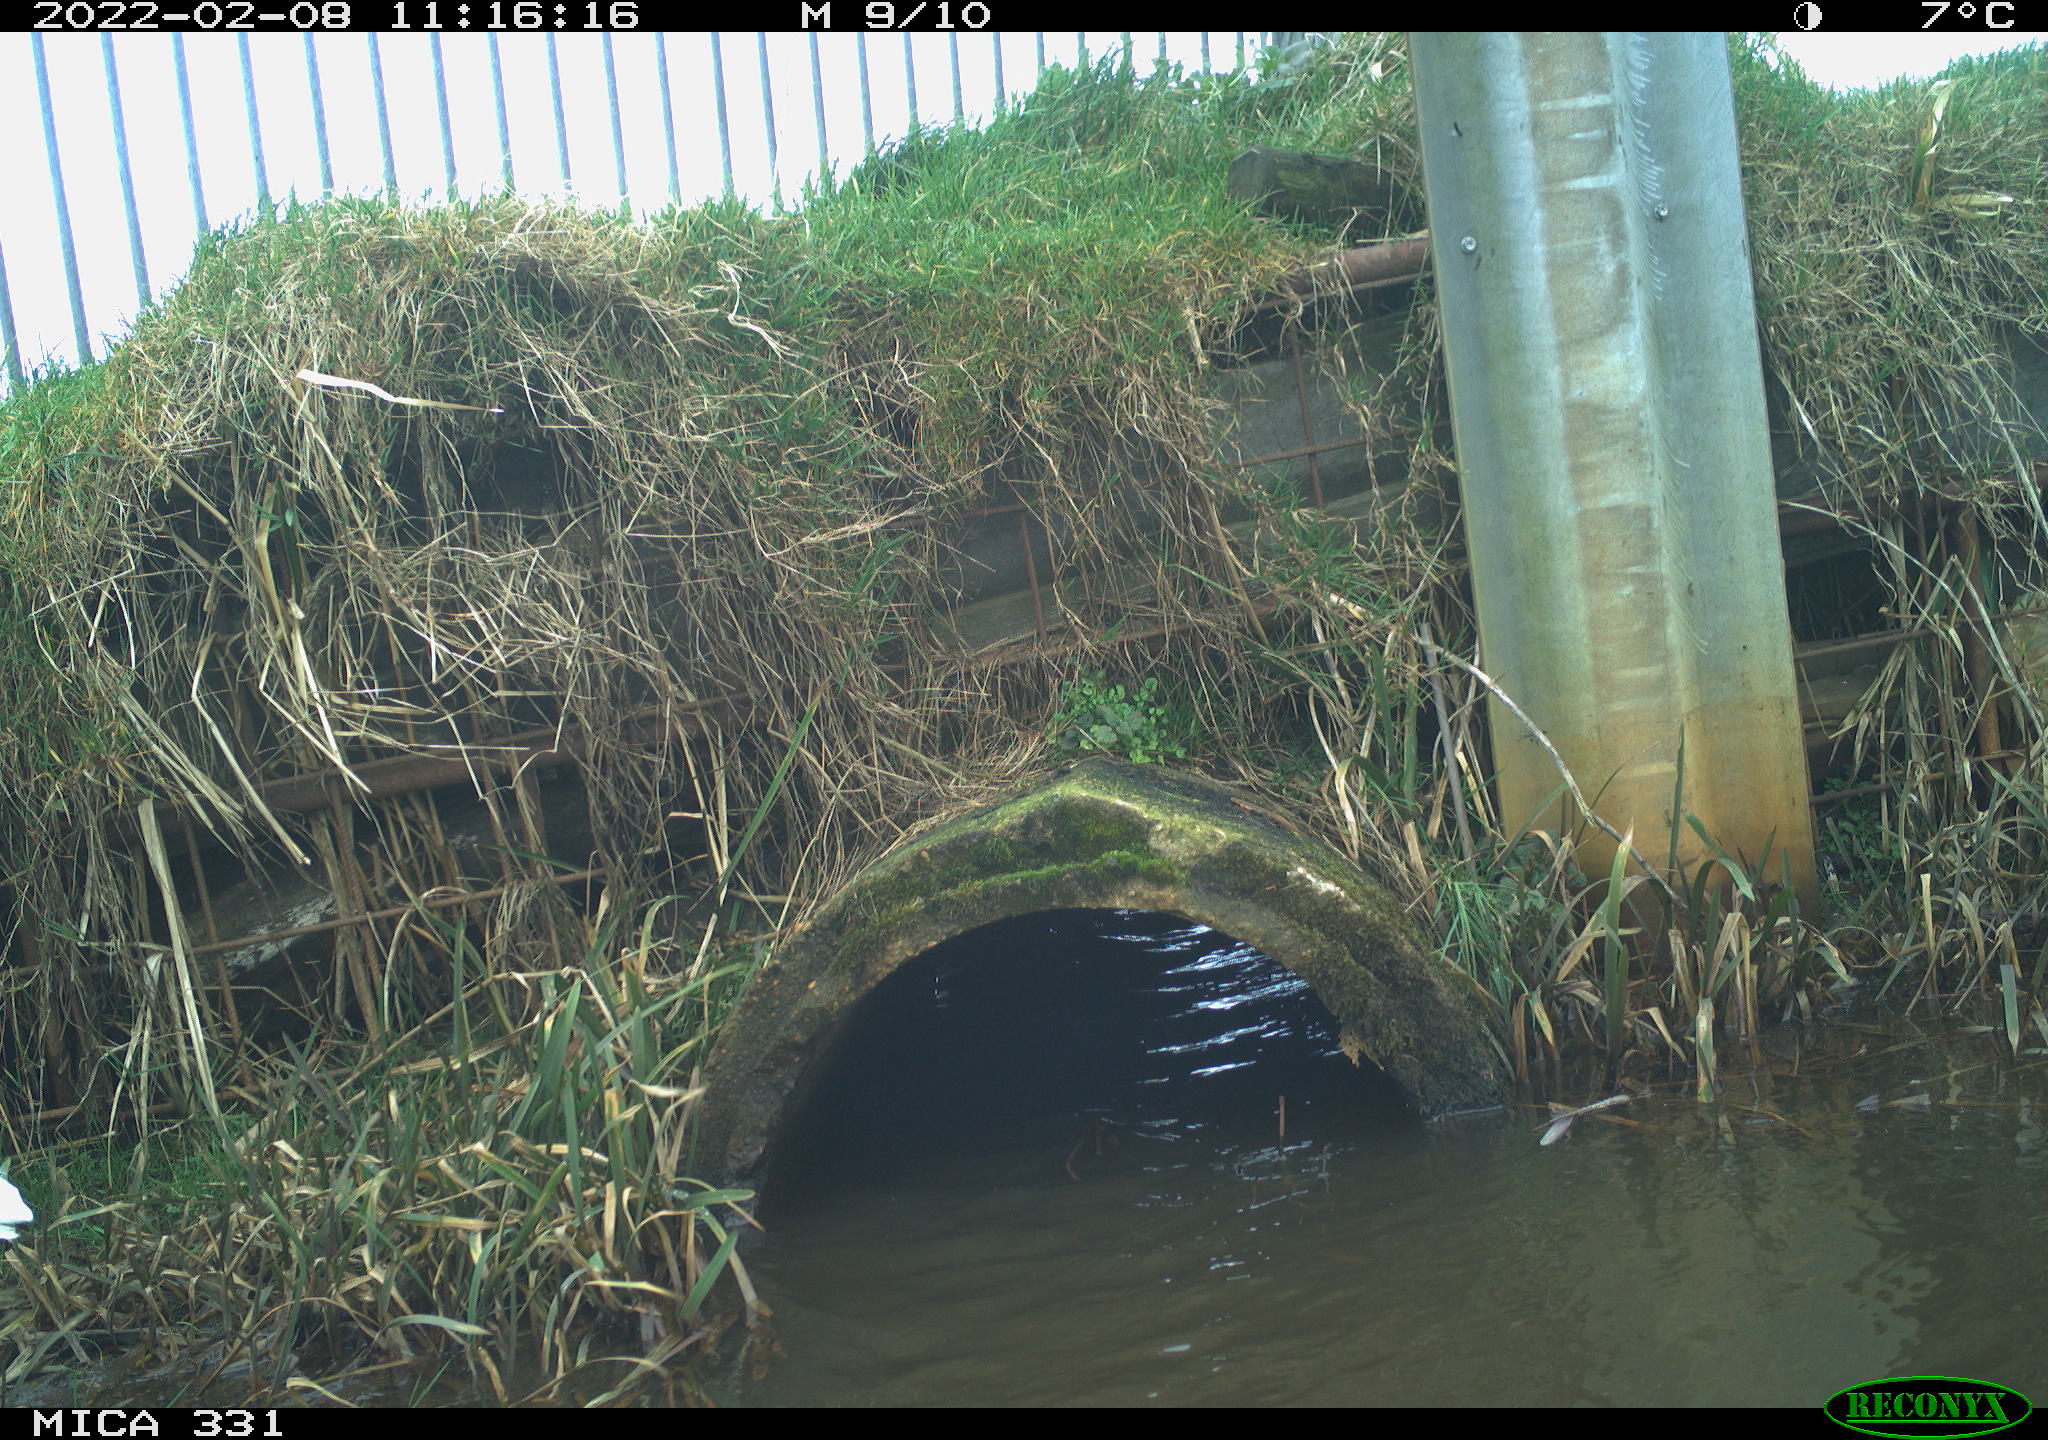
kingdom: Animalia
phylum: Chordata
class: Aves
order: Pelecaniformes
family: Ardeidae
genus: Ardea
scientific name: Ardea alba
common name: Great egret
